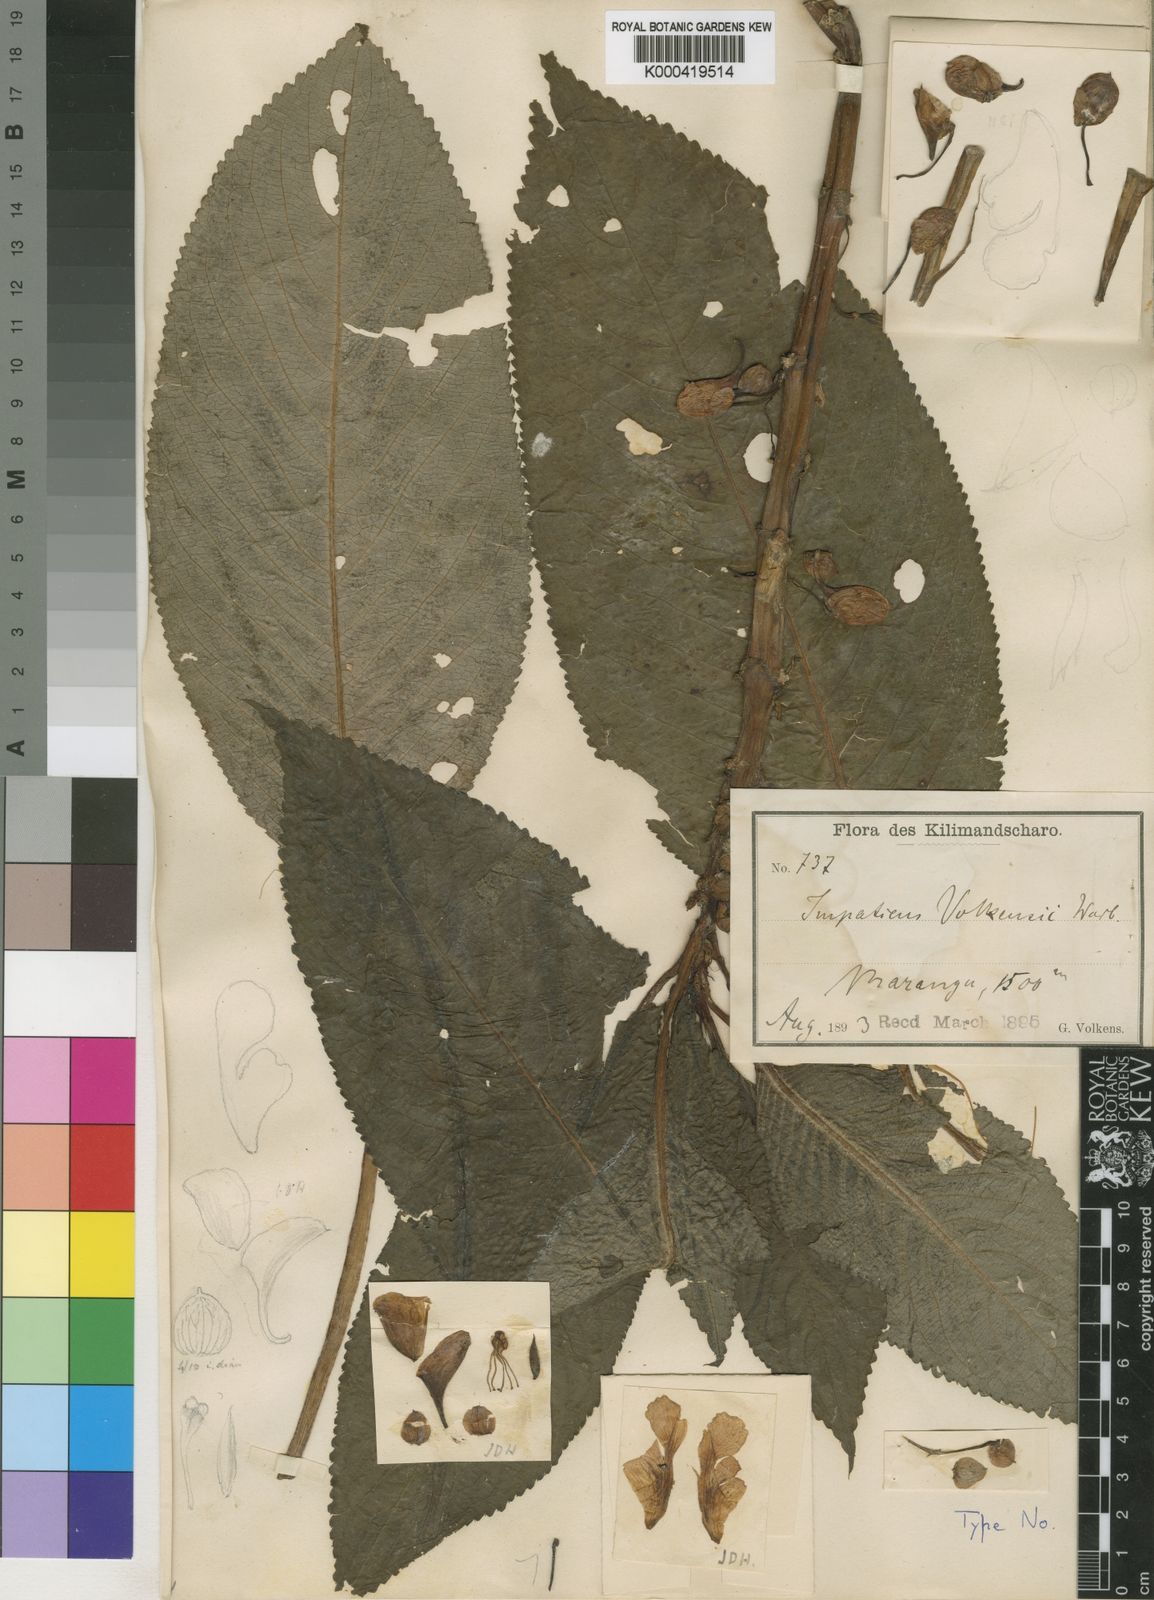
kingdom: Plantae
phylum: Tracheophyta
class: Magnoliopsida
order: Ericales
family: Balsaminaceae
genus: Impatiens
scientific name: Impatiens volkensii
